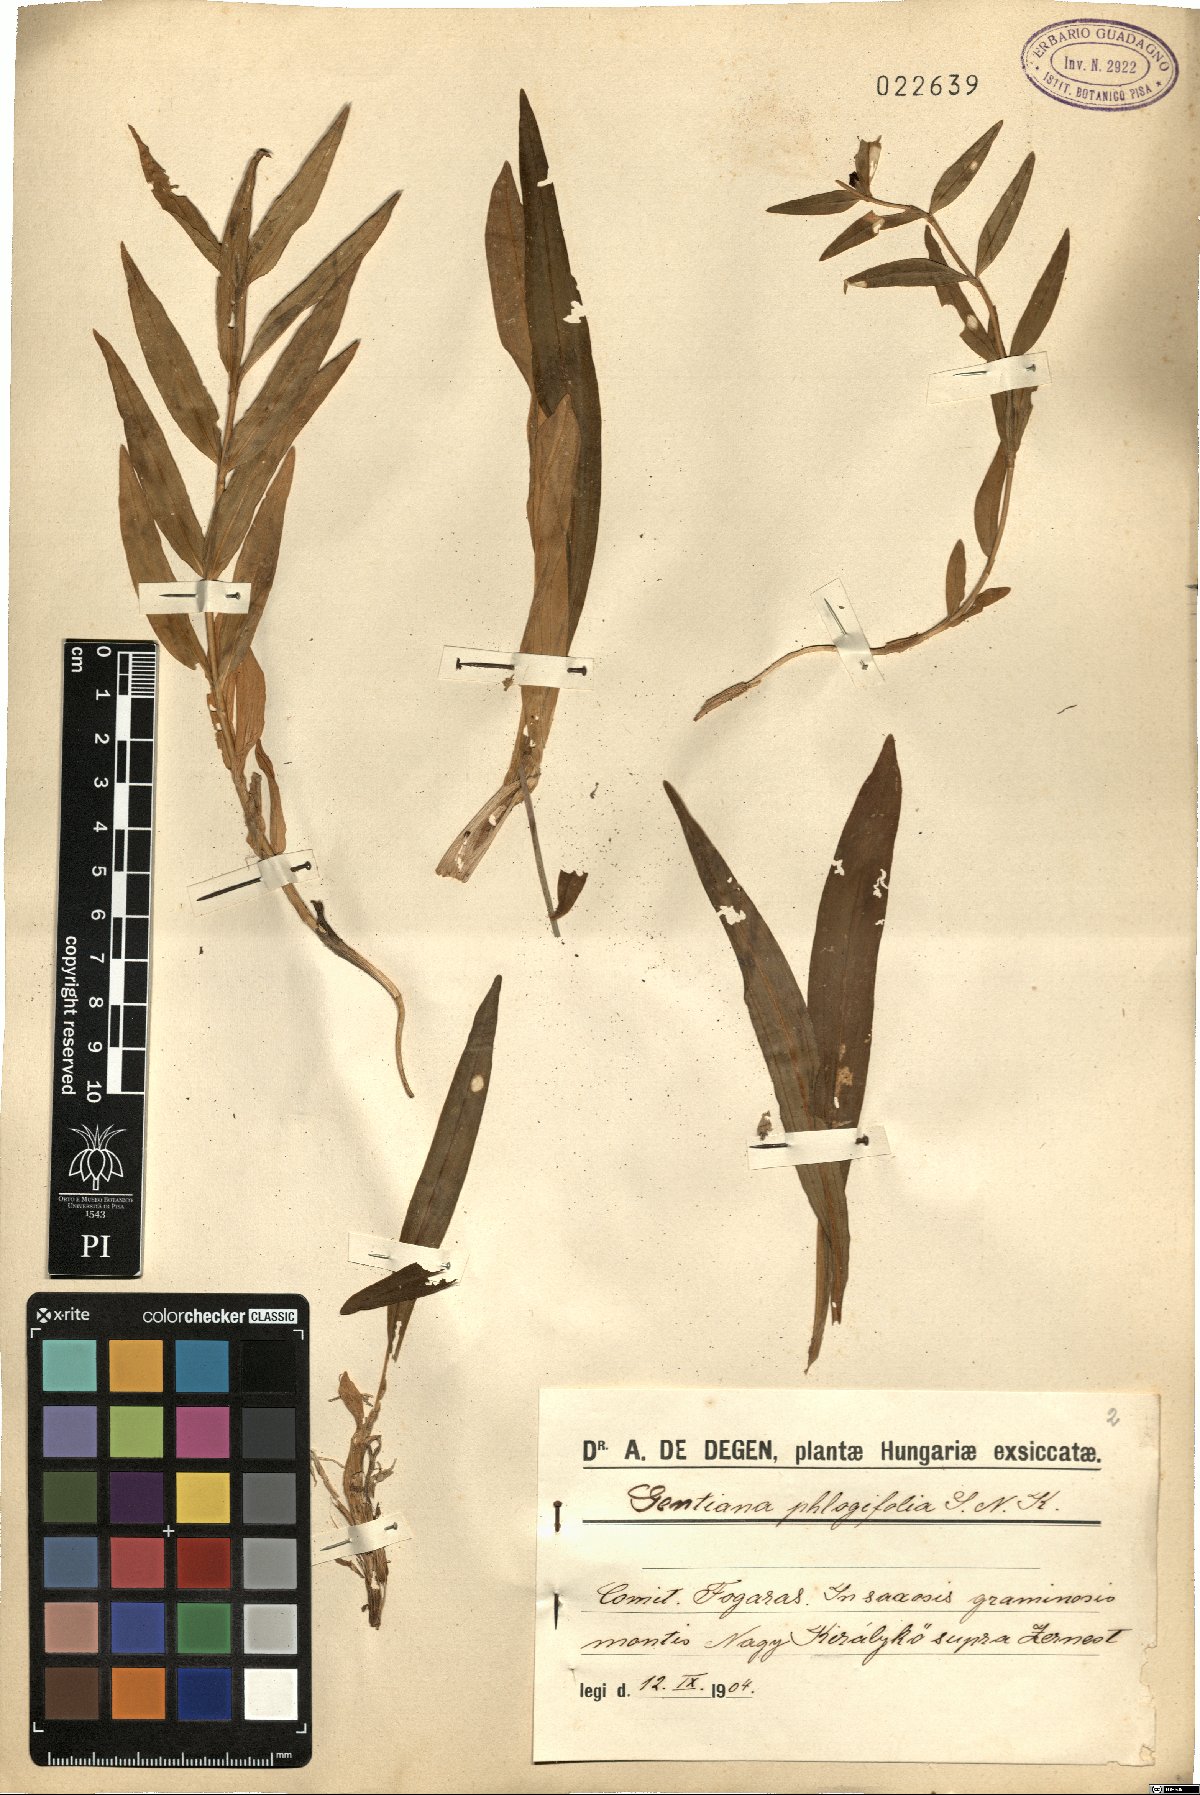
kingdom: Plantae
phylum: Tracheophyta
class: Magnoliopsida
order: Gentianales
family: Gentianaceae
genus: Gentiana
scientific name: Gentiana cruciata
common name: Cross gentian
